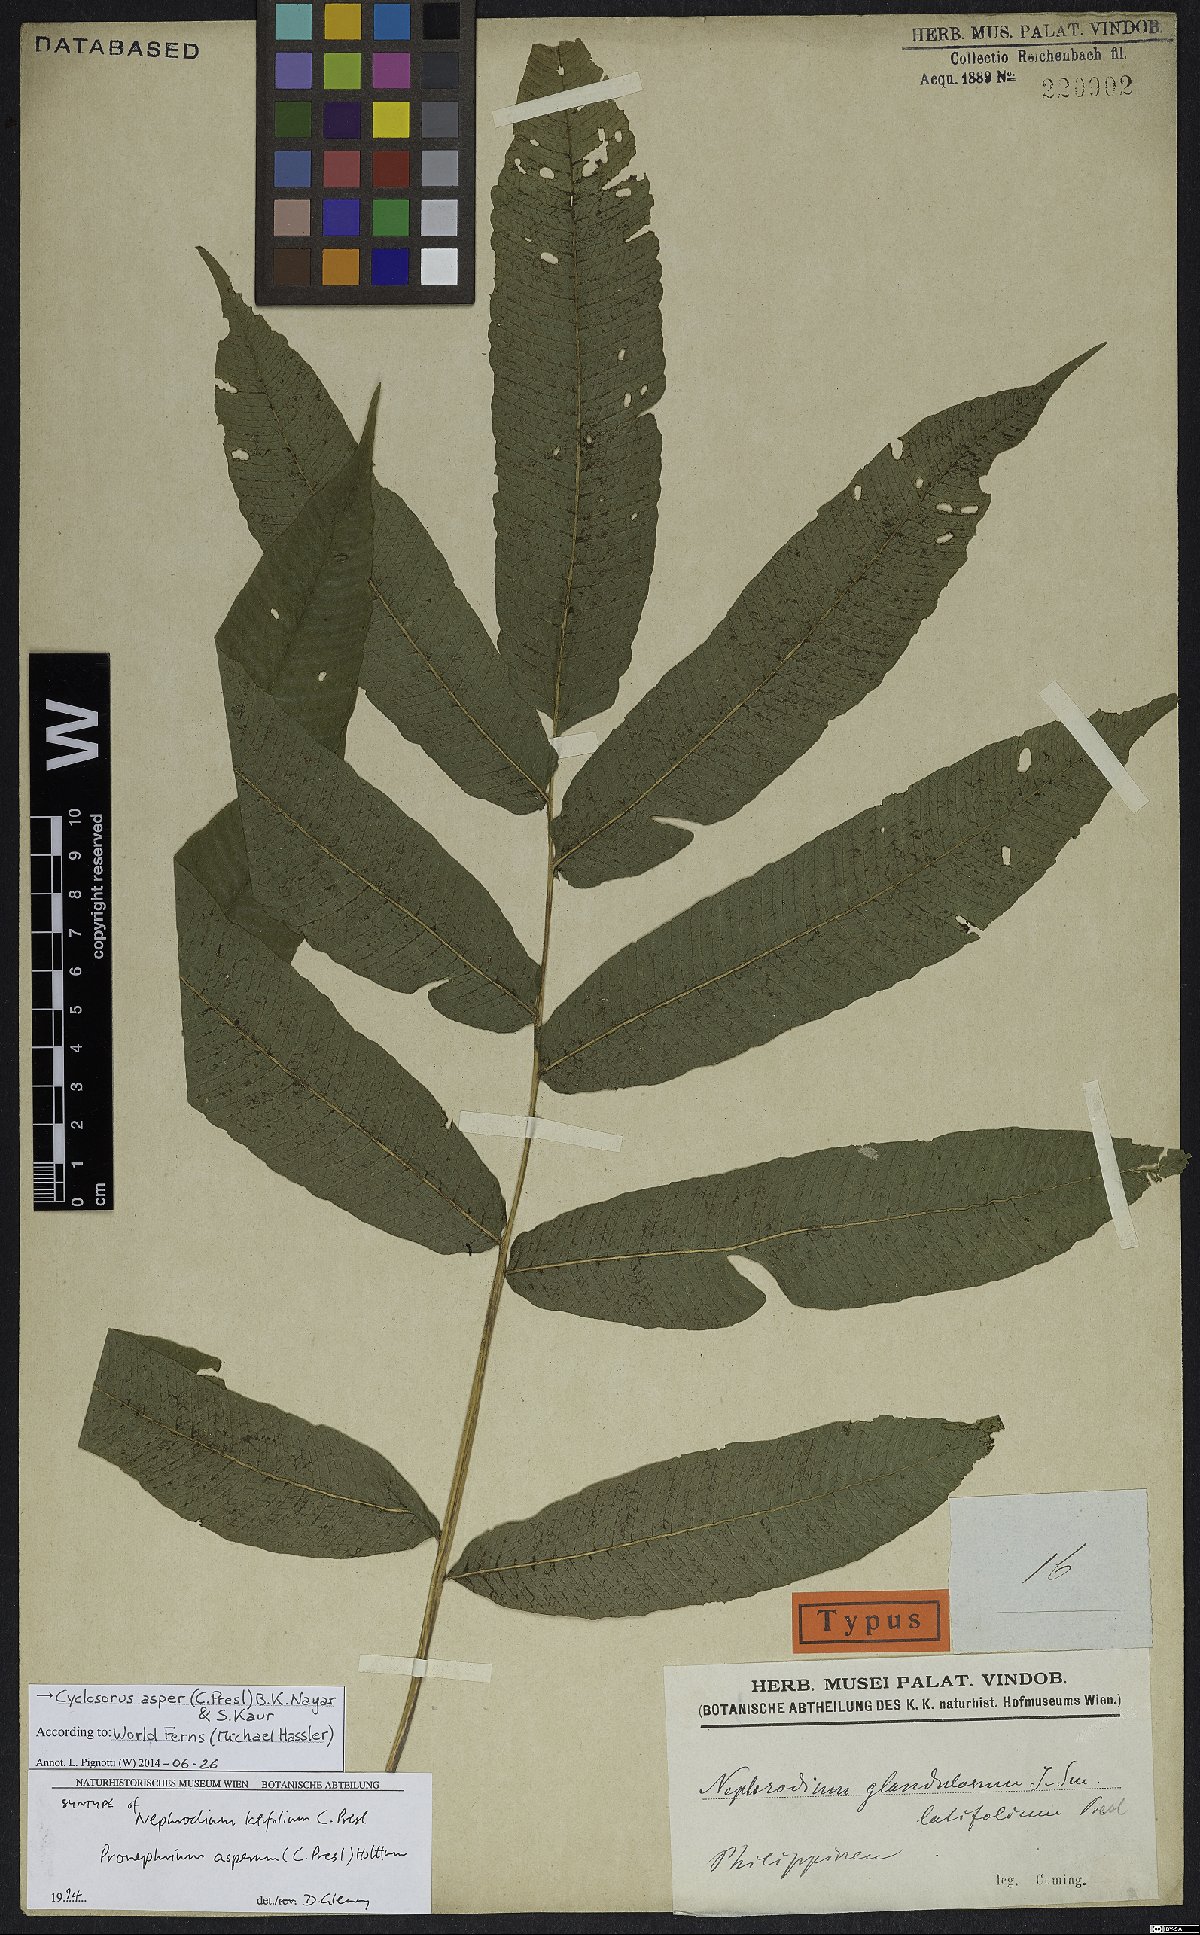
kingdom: Plantae
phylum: Tracheophyta
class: Polypodiopsida
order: Polypodiales
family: Thelypteridaceae
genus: Abacopteris
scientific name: Abacopteris aspera
